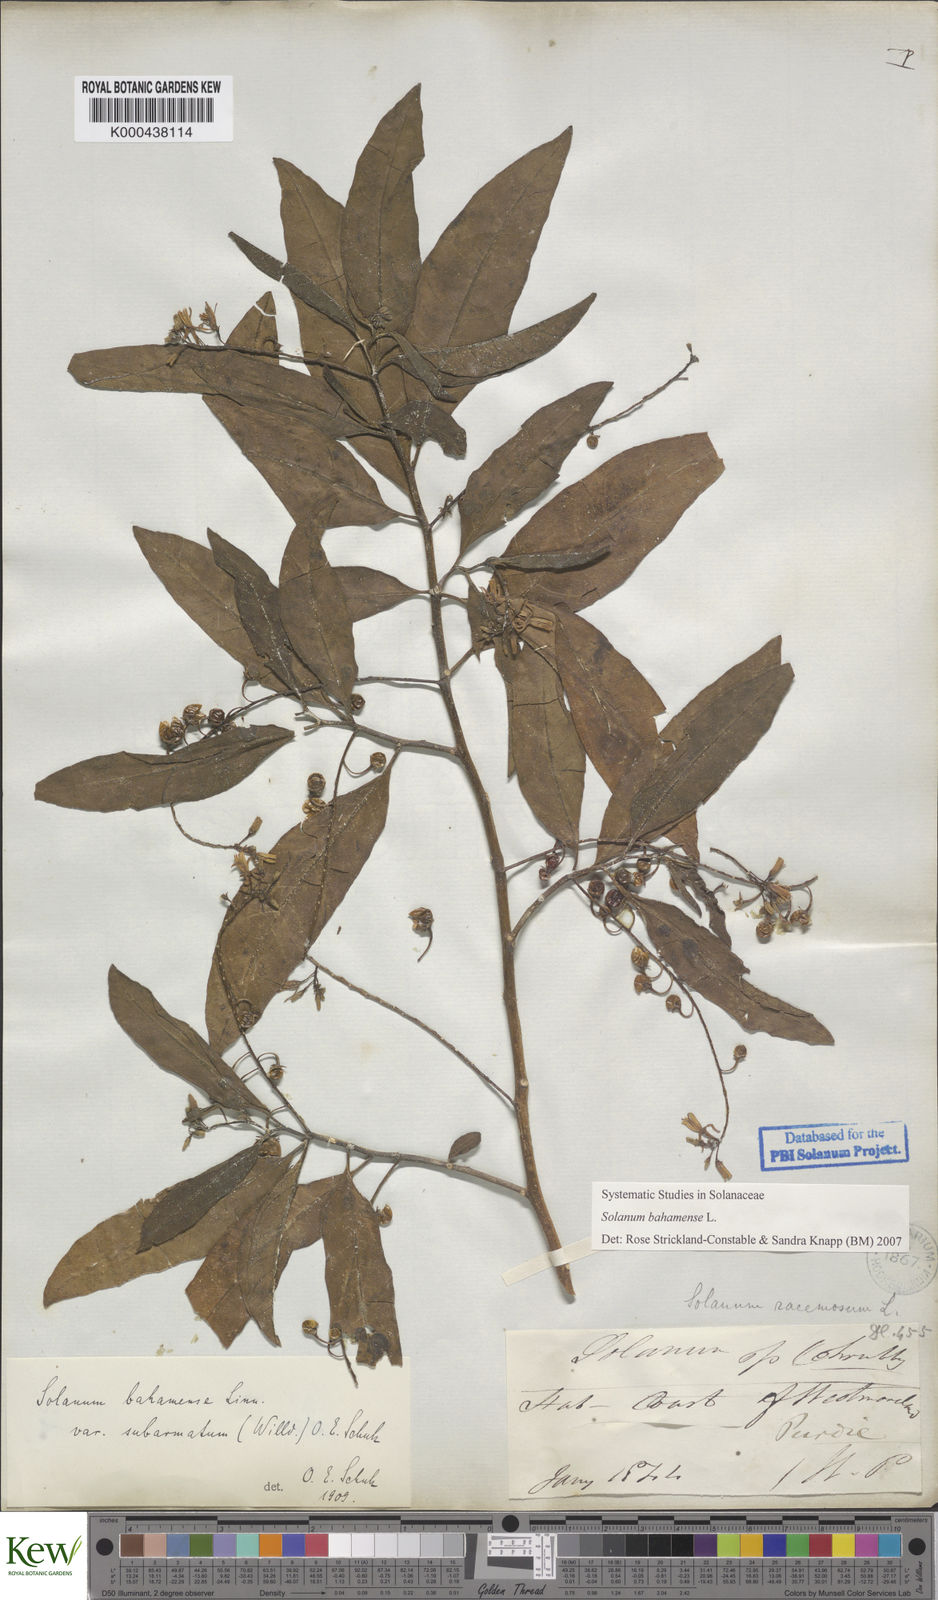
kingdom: Plantae
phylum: Tracheophyta
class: Magnoliopsida
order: Solanales
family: Solanaceae
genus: Solanum
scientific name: Solanum bahamense
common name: Canker-berry
